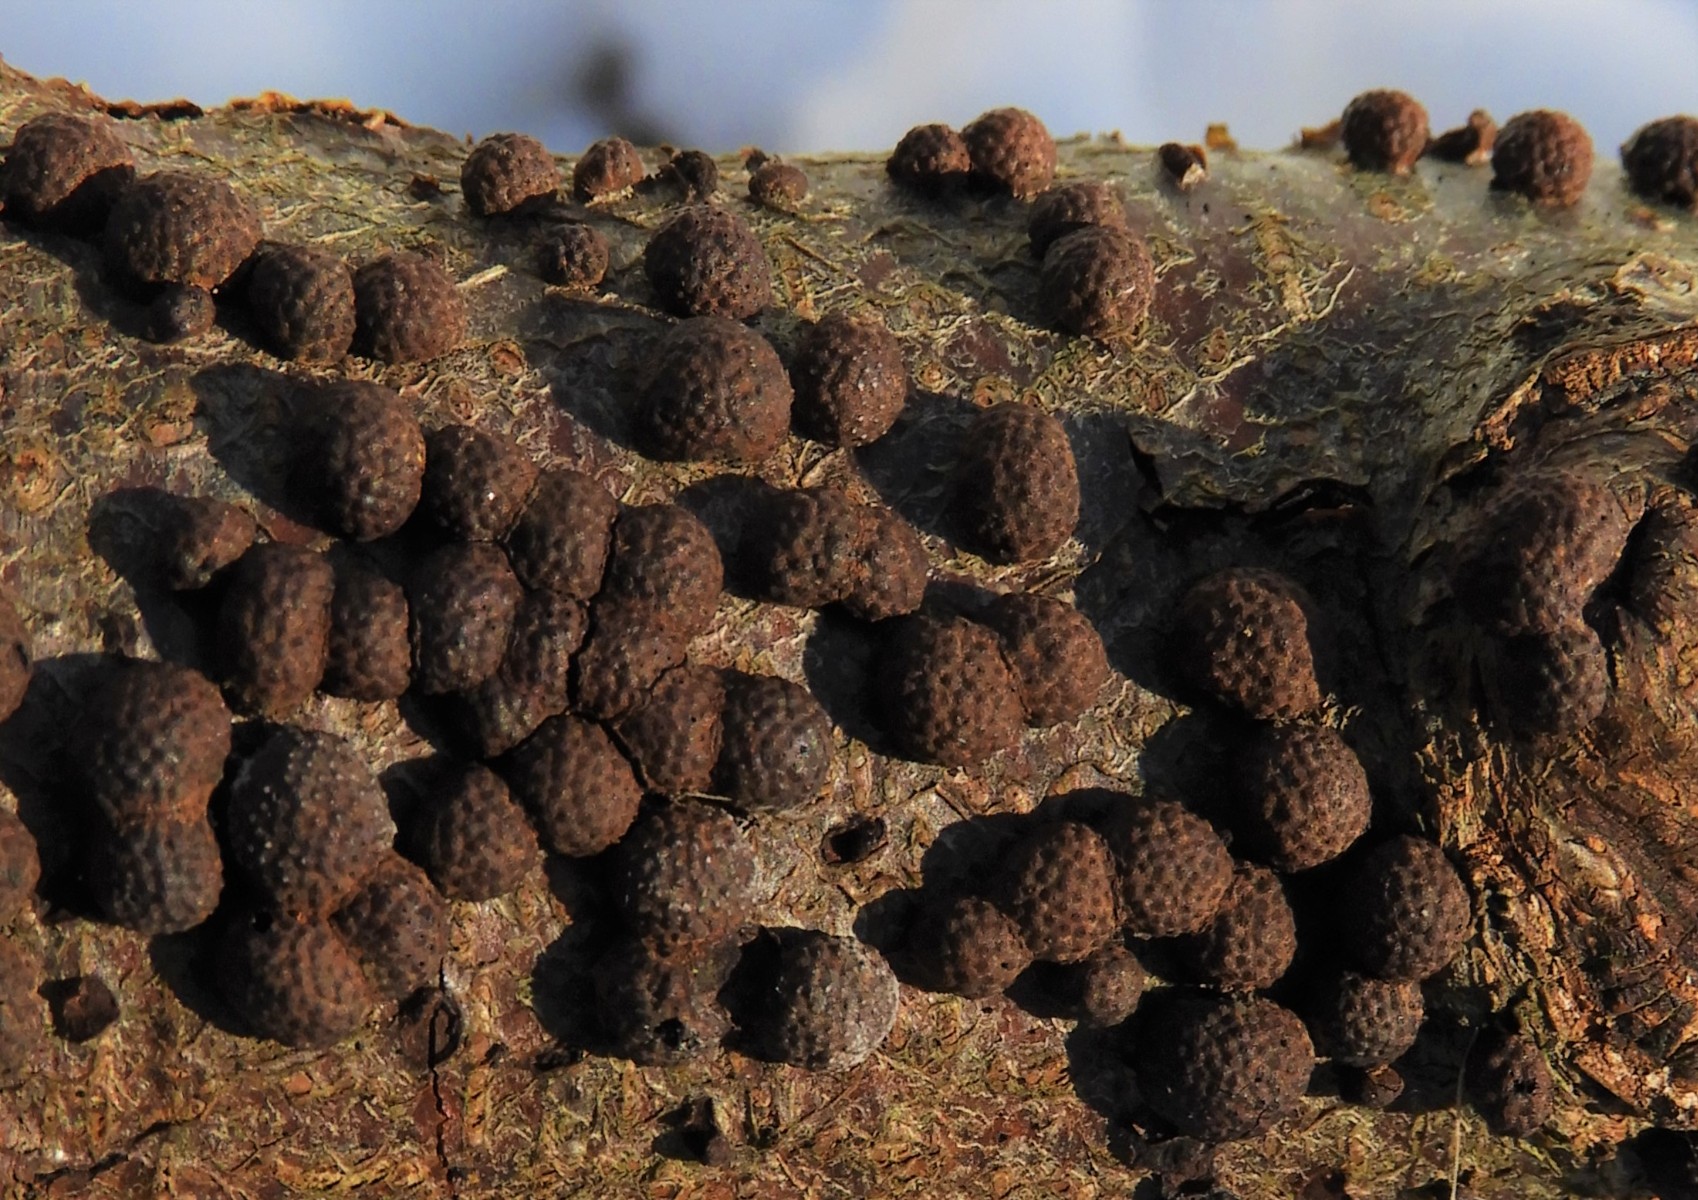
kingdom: Fungi
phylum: Ascomycota
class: Sordariomycetes
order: Xylariales
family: Hypoxylaceae
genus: Hypoxylon
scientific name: Hypoxylon fragiforme
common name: kuljordbær
